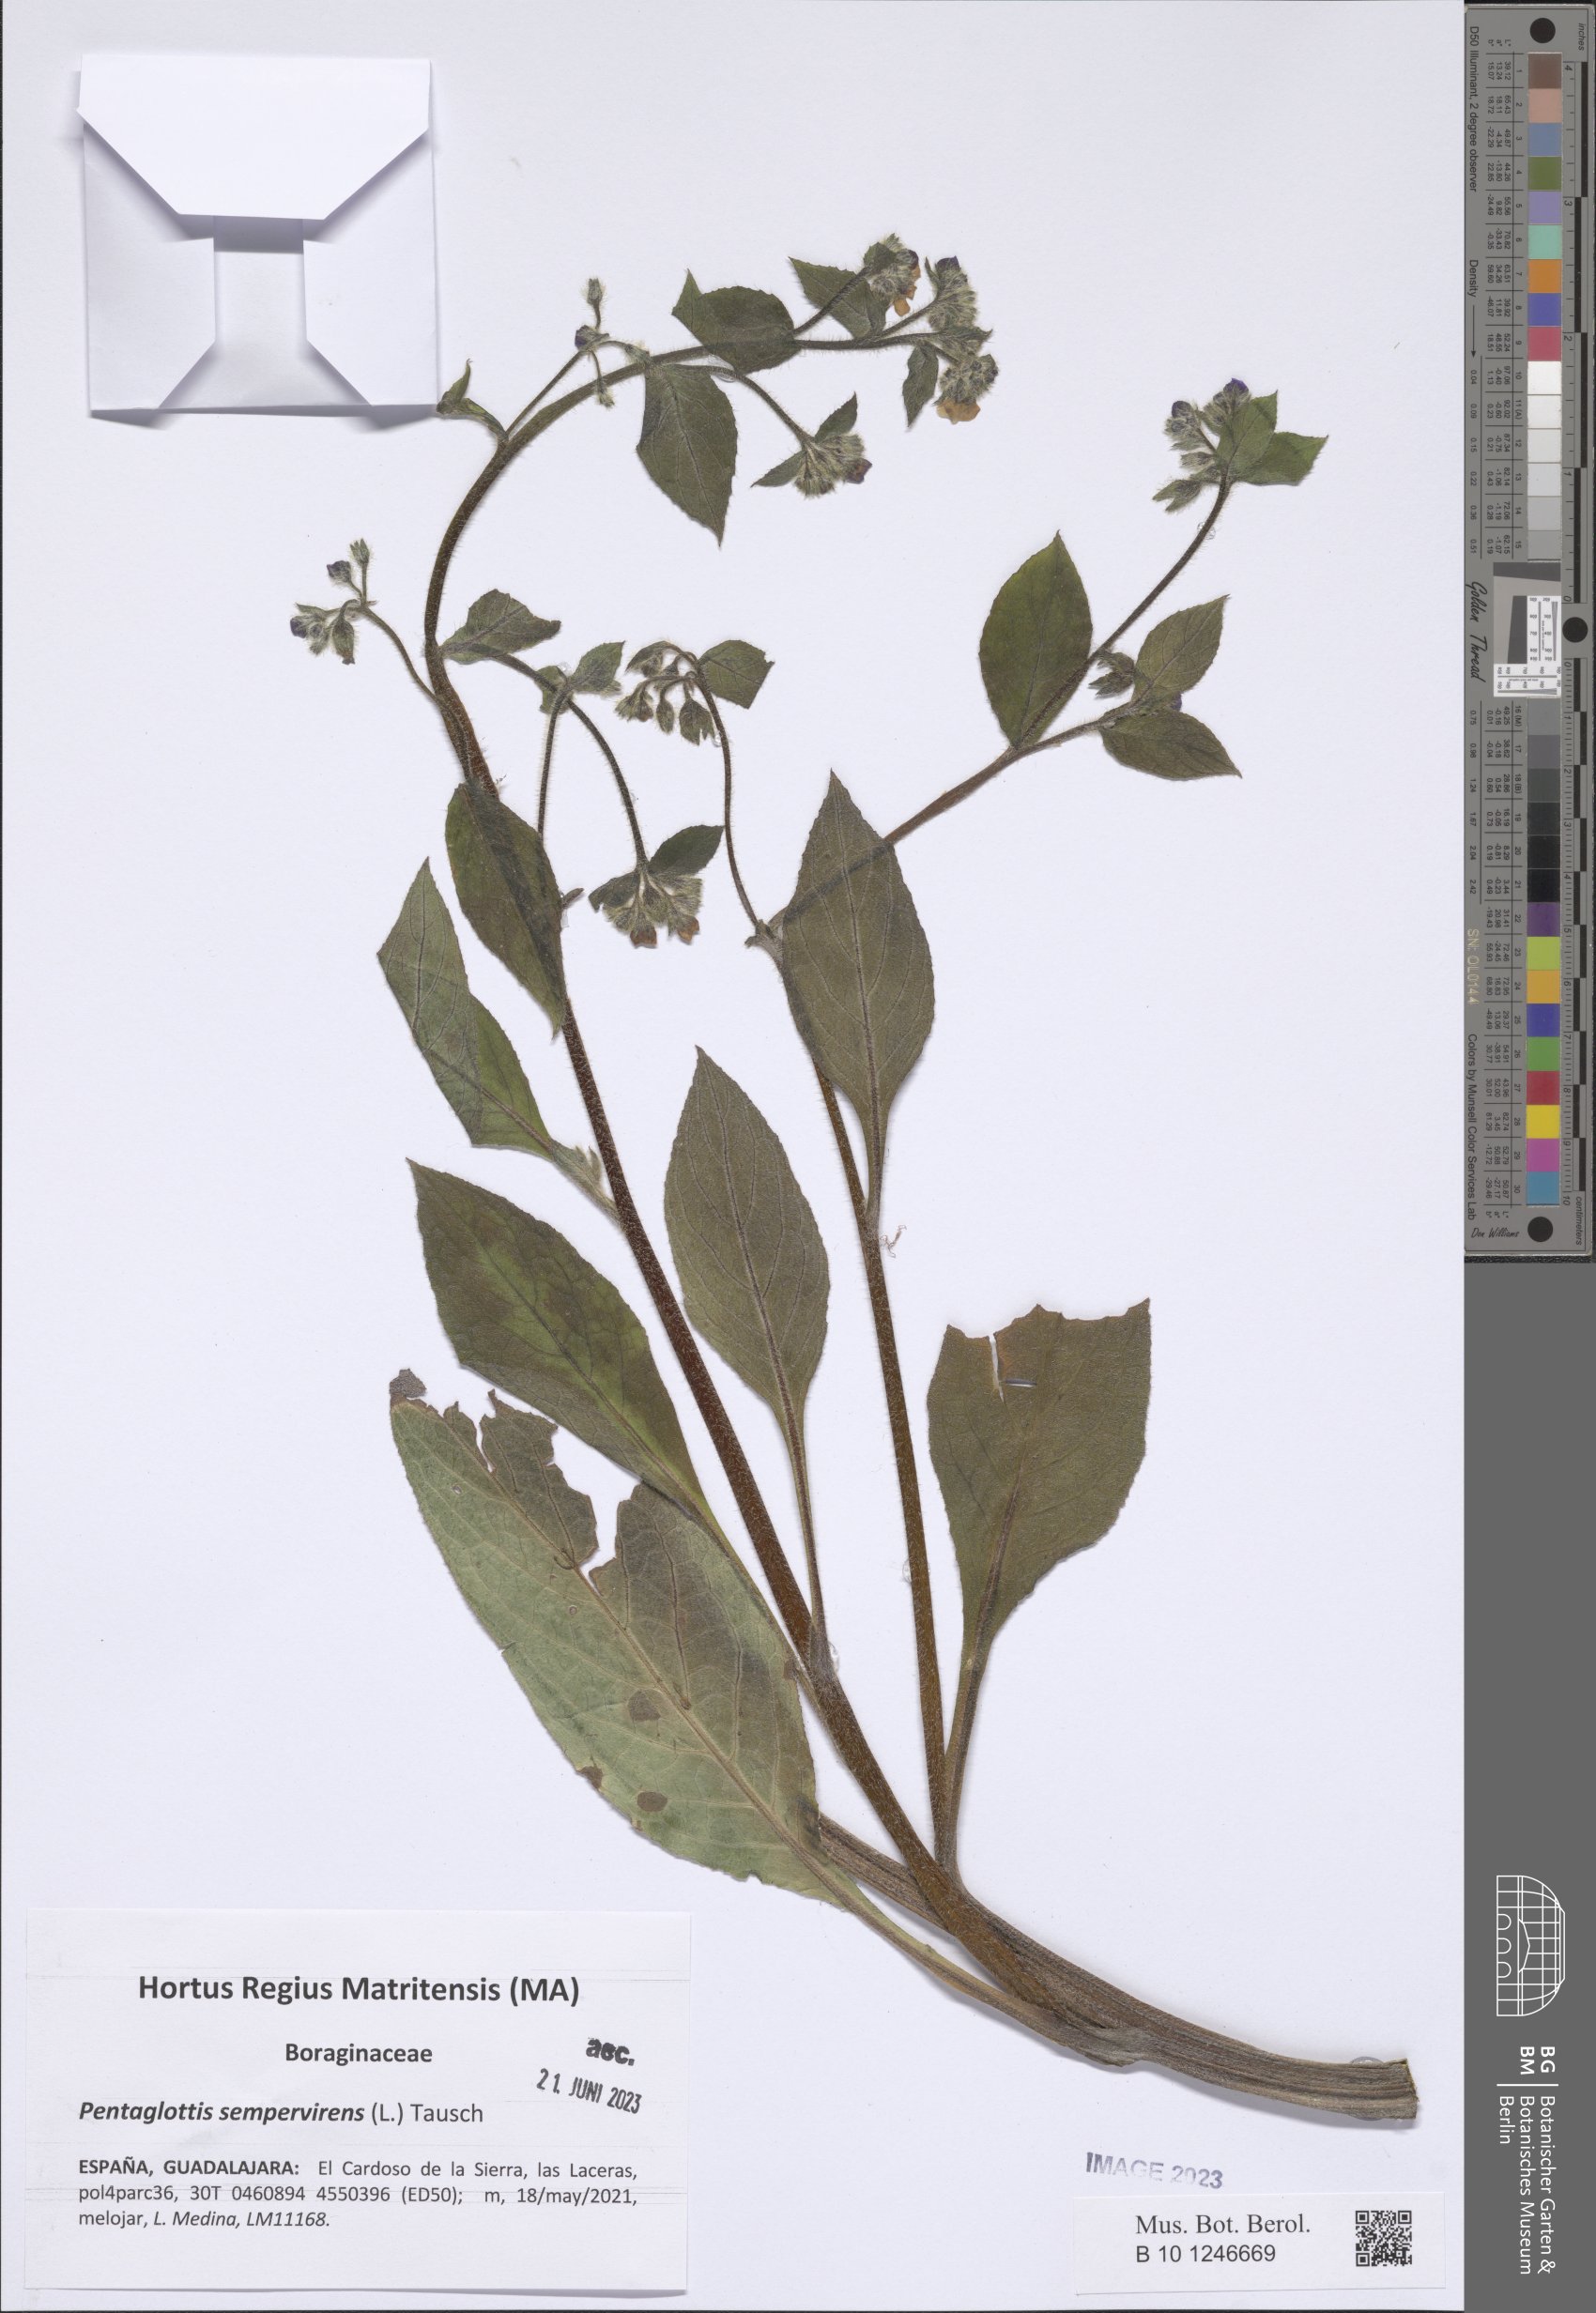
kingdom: Plantae
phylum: Tracheophyta
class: Magnoliopsida
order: Boraginales
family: Boraginaceae
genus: Pentaglottis
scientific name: Pentaglottis sempervirens
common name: Green alkanet
